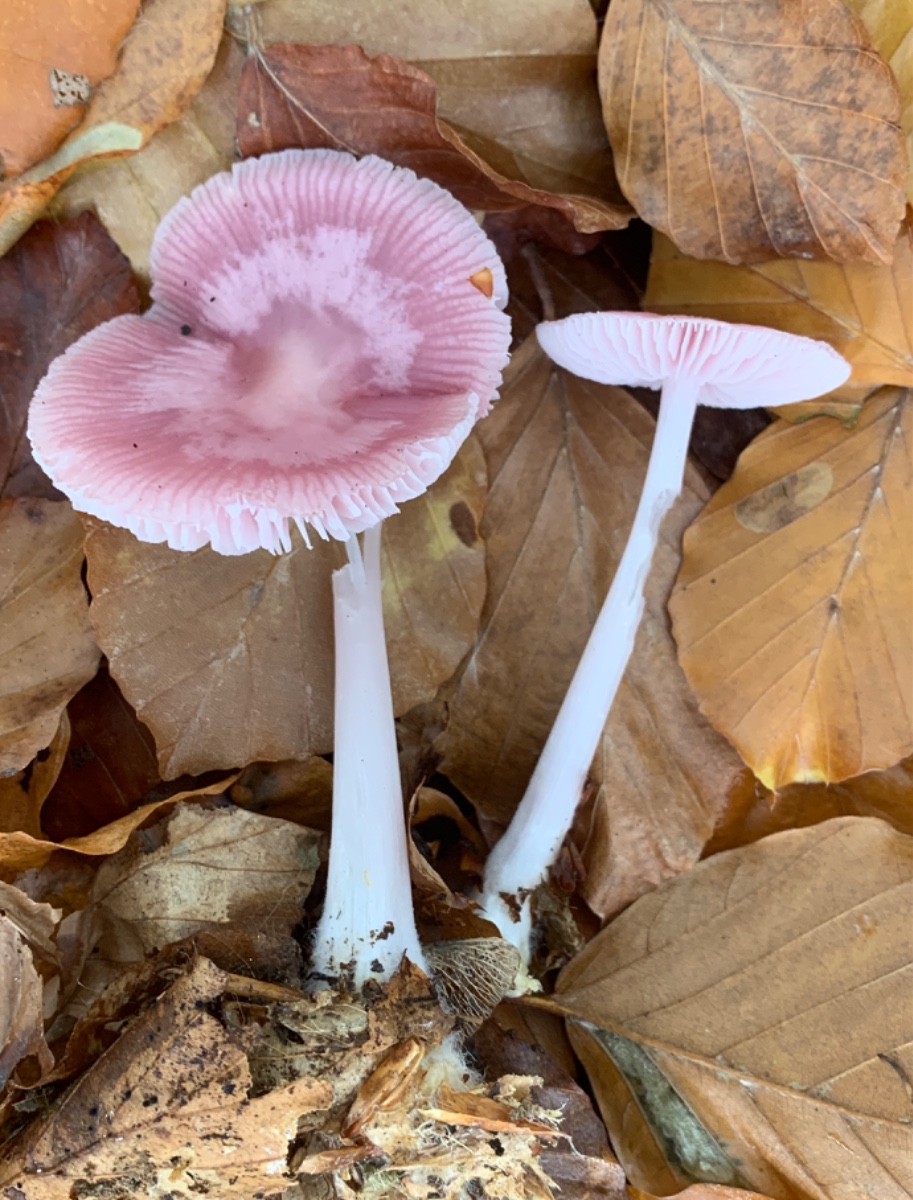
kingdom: Fungi
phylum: Basidiomycota
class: Agaricomycetes
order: Agaricales
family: Mycenaceae
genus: Mycena
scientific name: Mycena rosea
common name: rosa huesvamp
